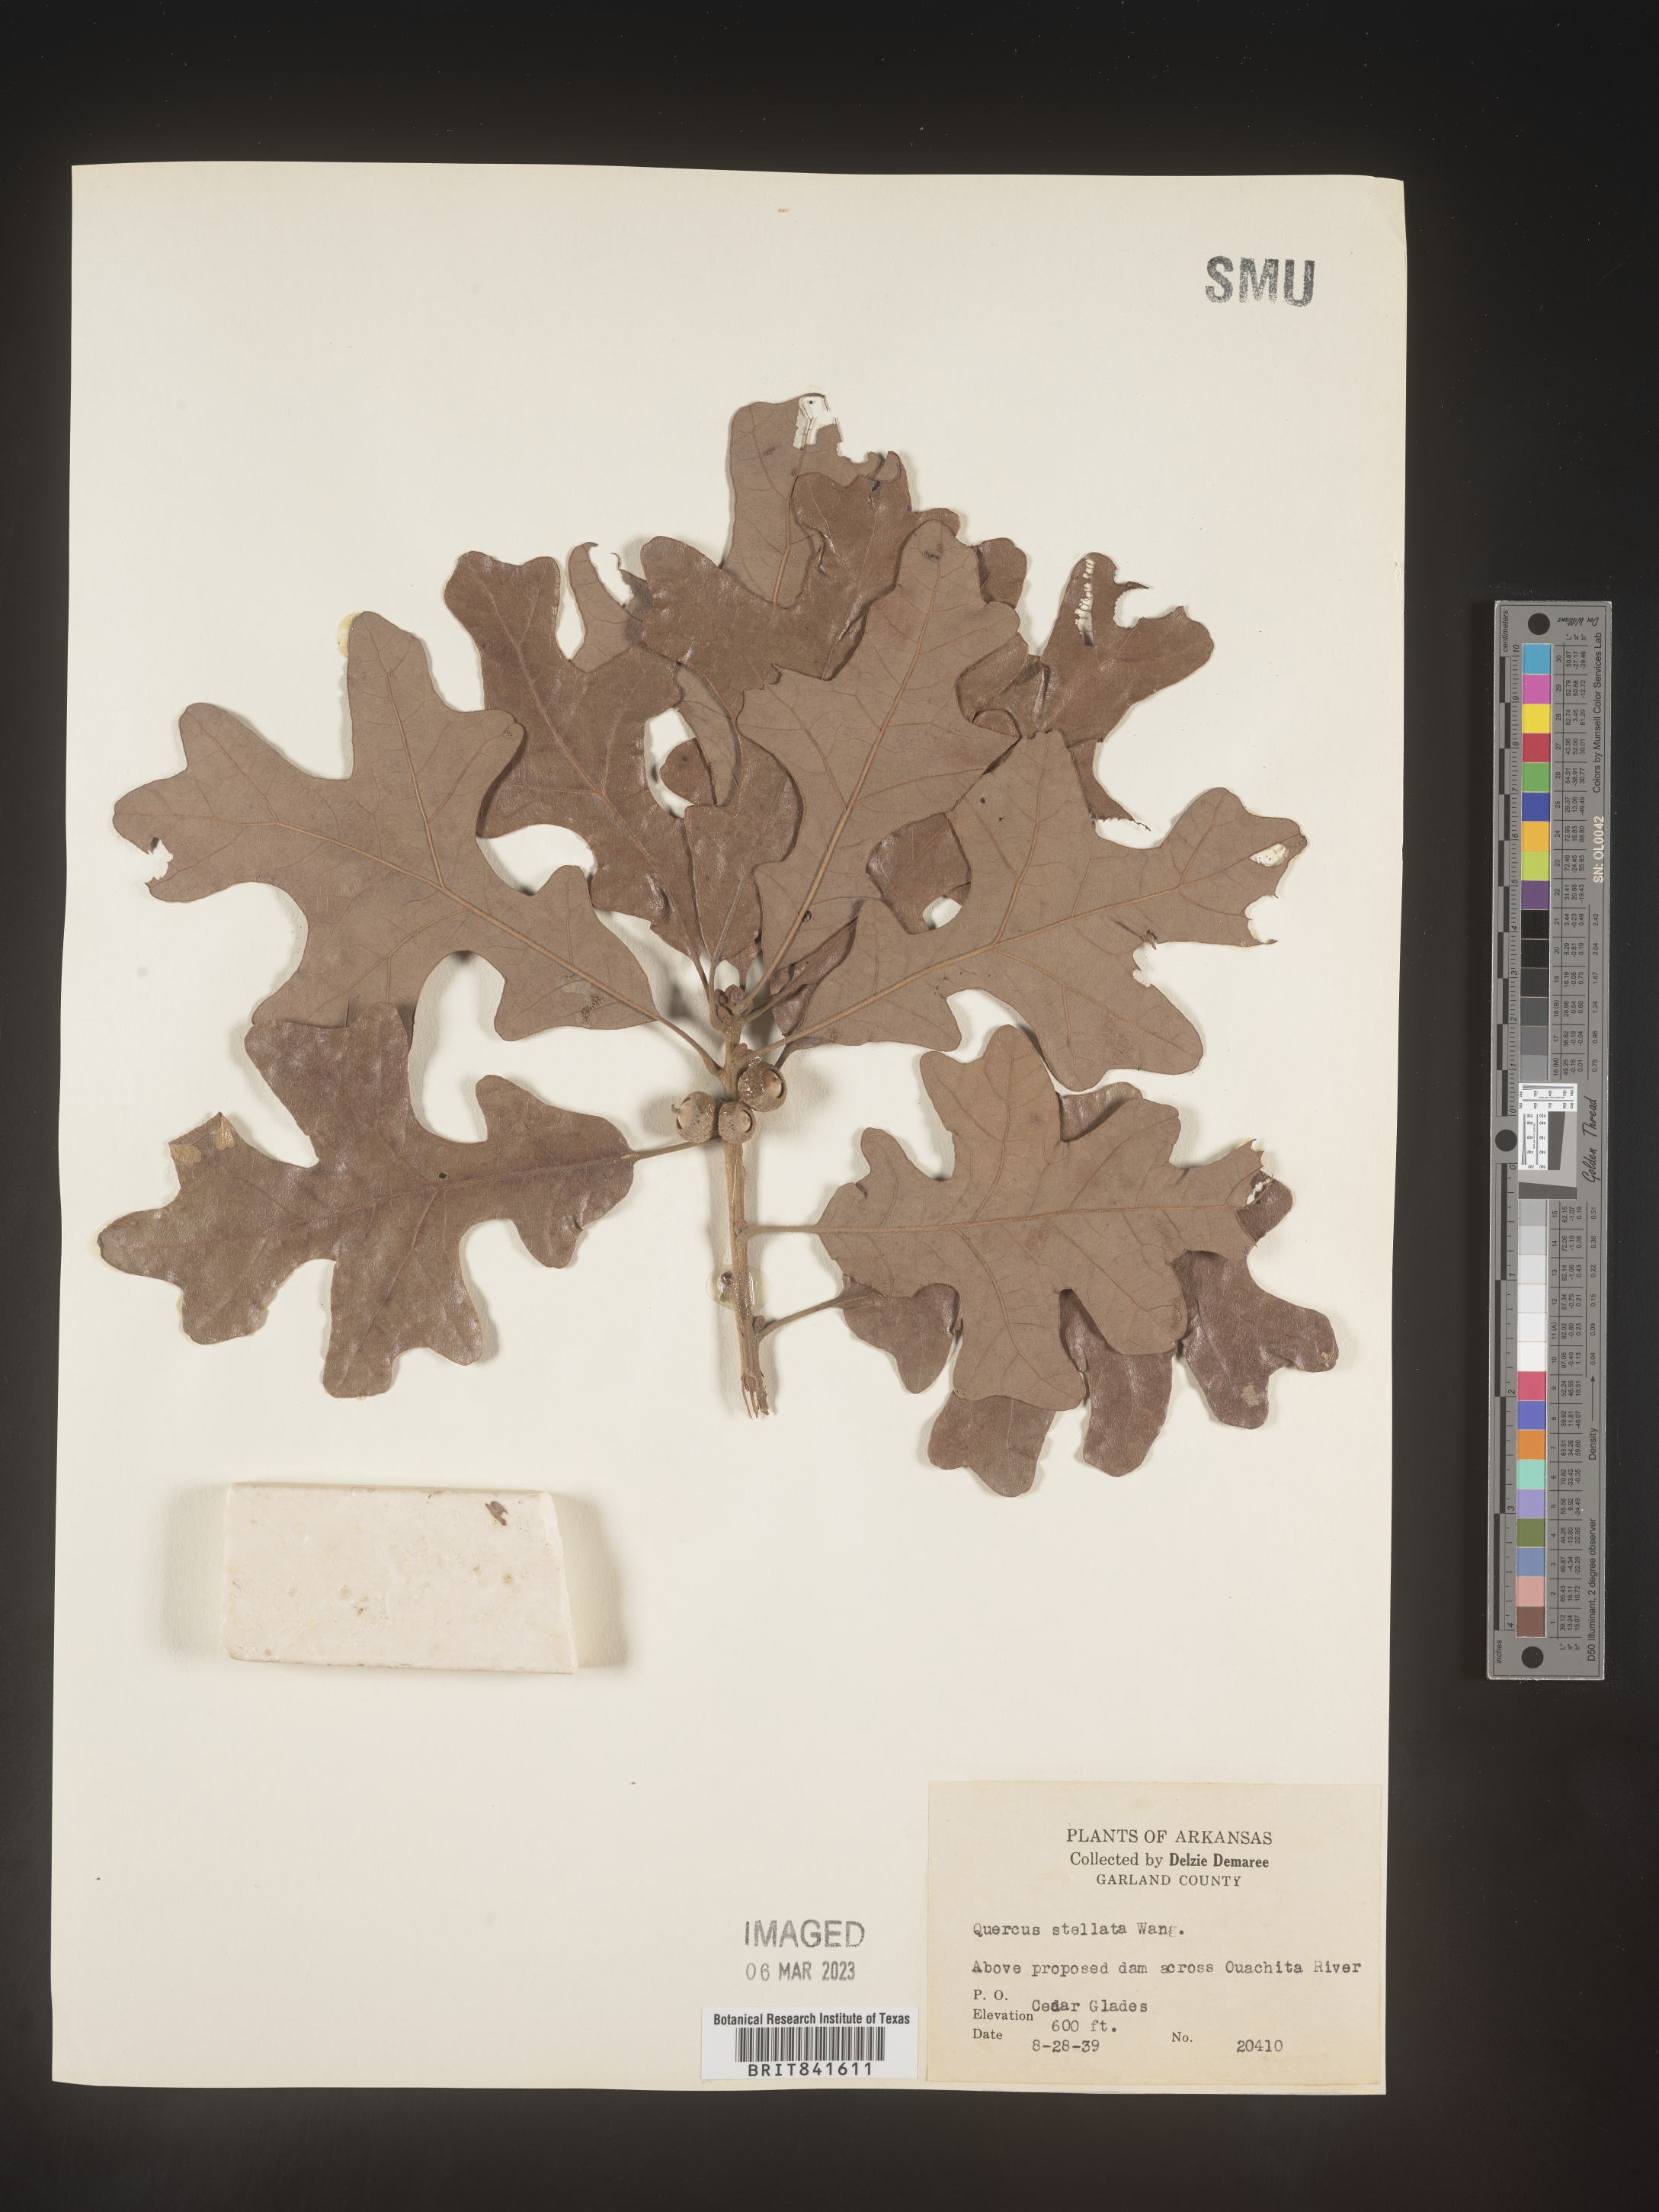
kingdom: Plantae
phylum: Tracheophyta
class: Magnoliopsida
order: Fagales
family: Fagaceae
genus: Quercus
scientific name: Quercus stellata
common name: Post oak
